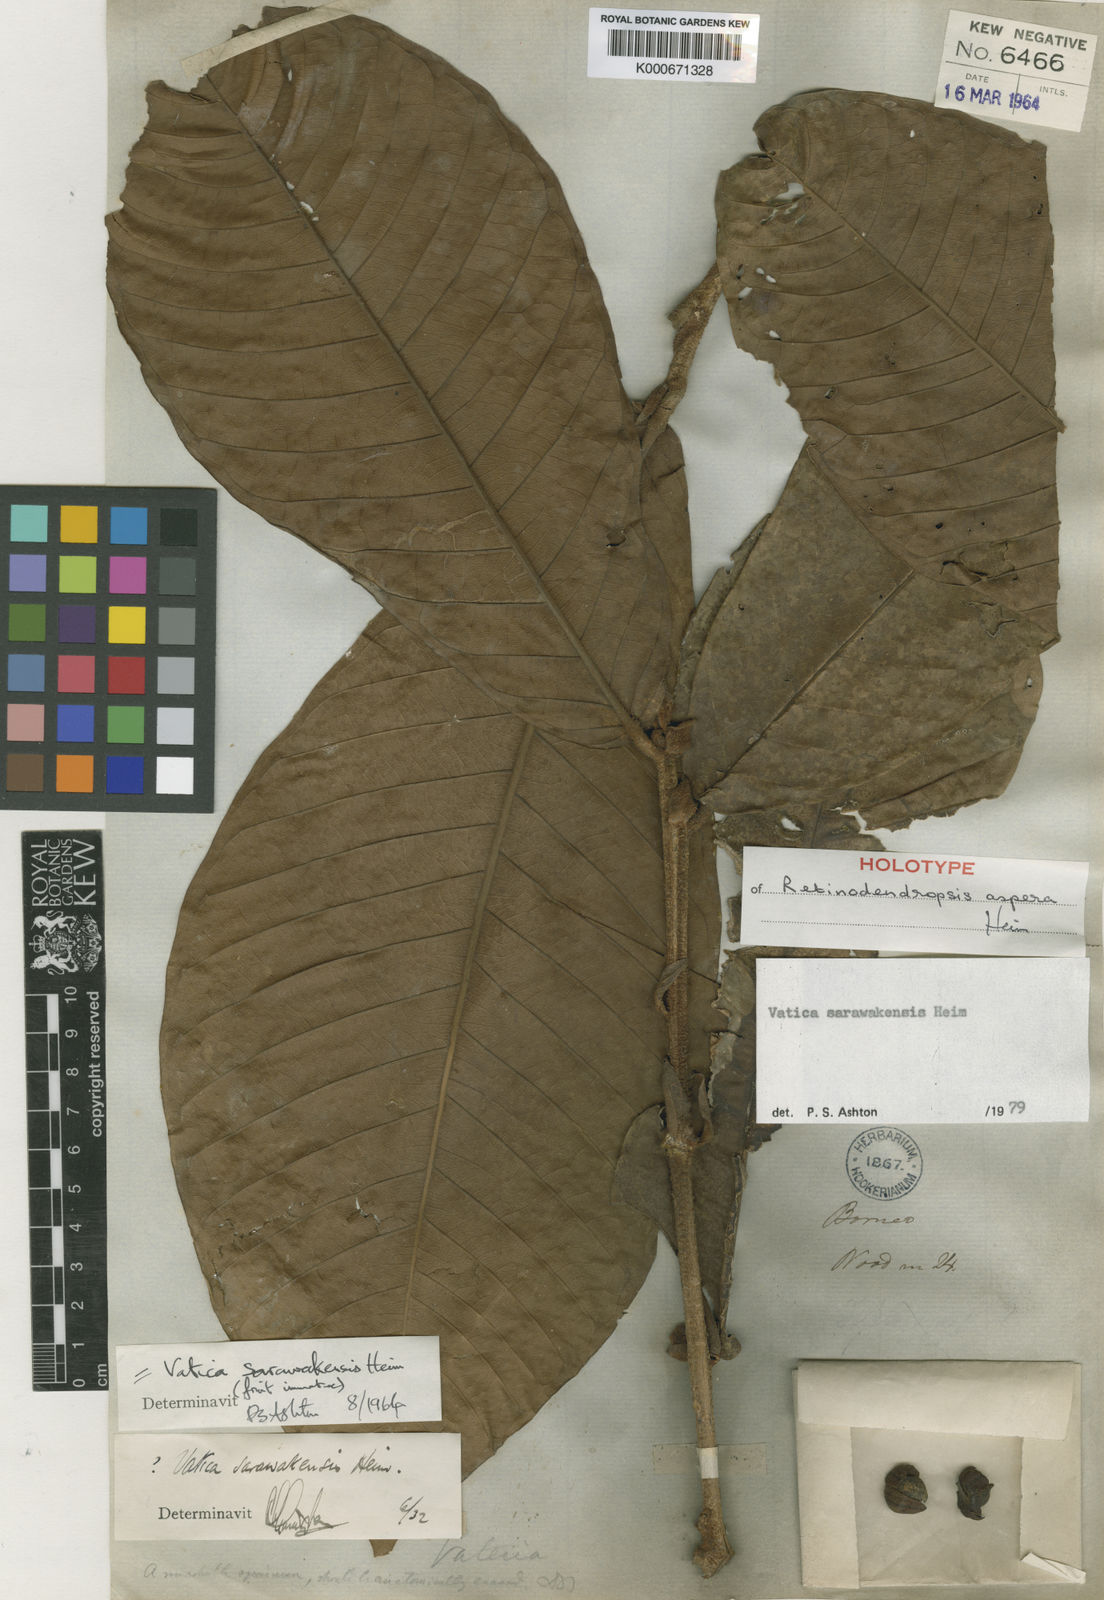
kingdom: Plantae
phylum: Tracheophyta
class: Magnoliopsida
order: Malvales
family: Dipterocarpaceae
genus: Vatica
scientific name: Vatica sarawakensis
